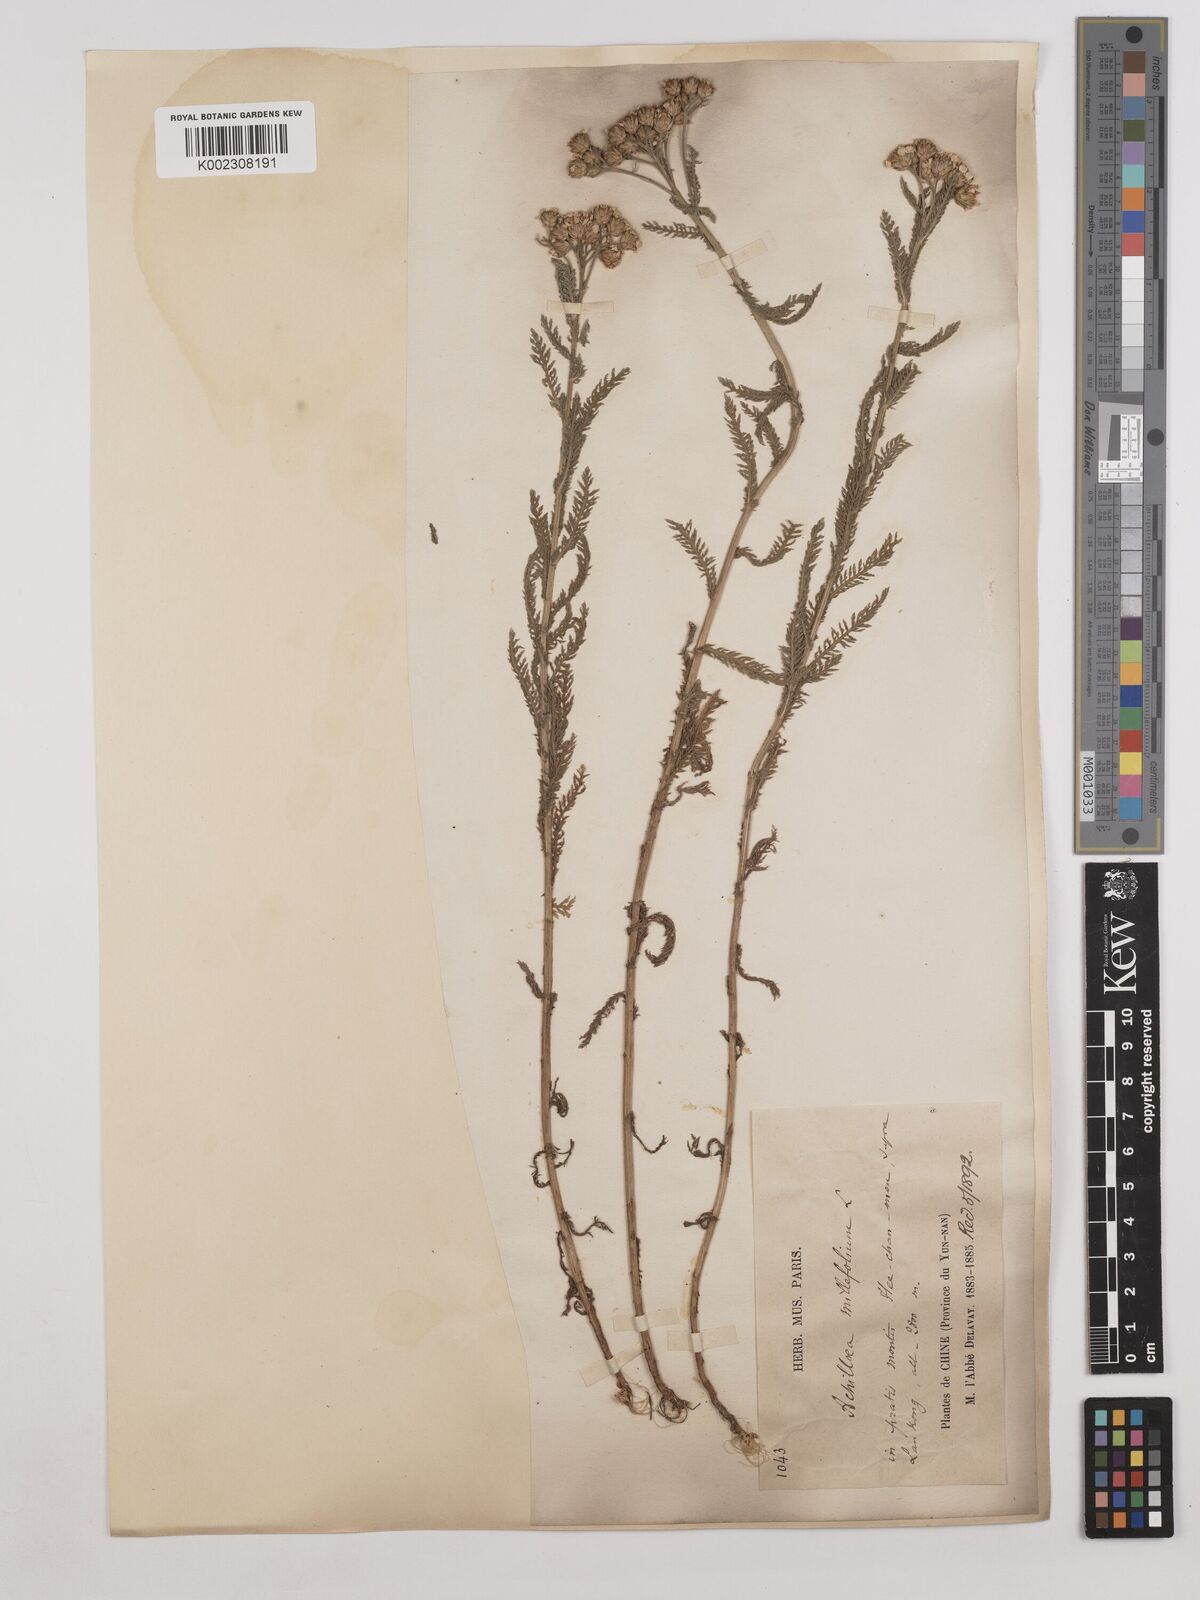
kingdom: Plantae
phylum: Tracheophyta
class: Magnoliopsida
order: Asterales
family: Asteraceae
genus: Achillea
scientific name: Achillea alpina
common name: Siberian yarrow
